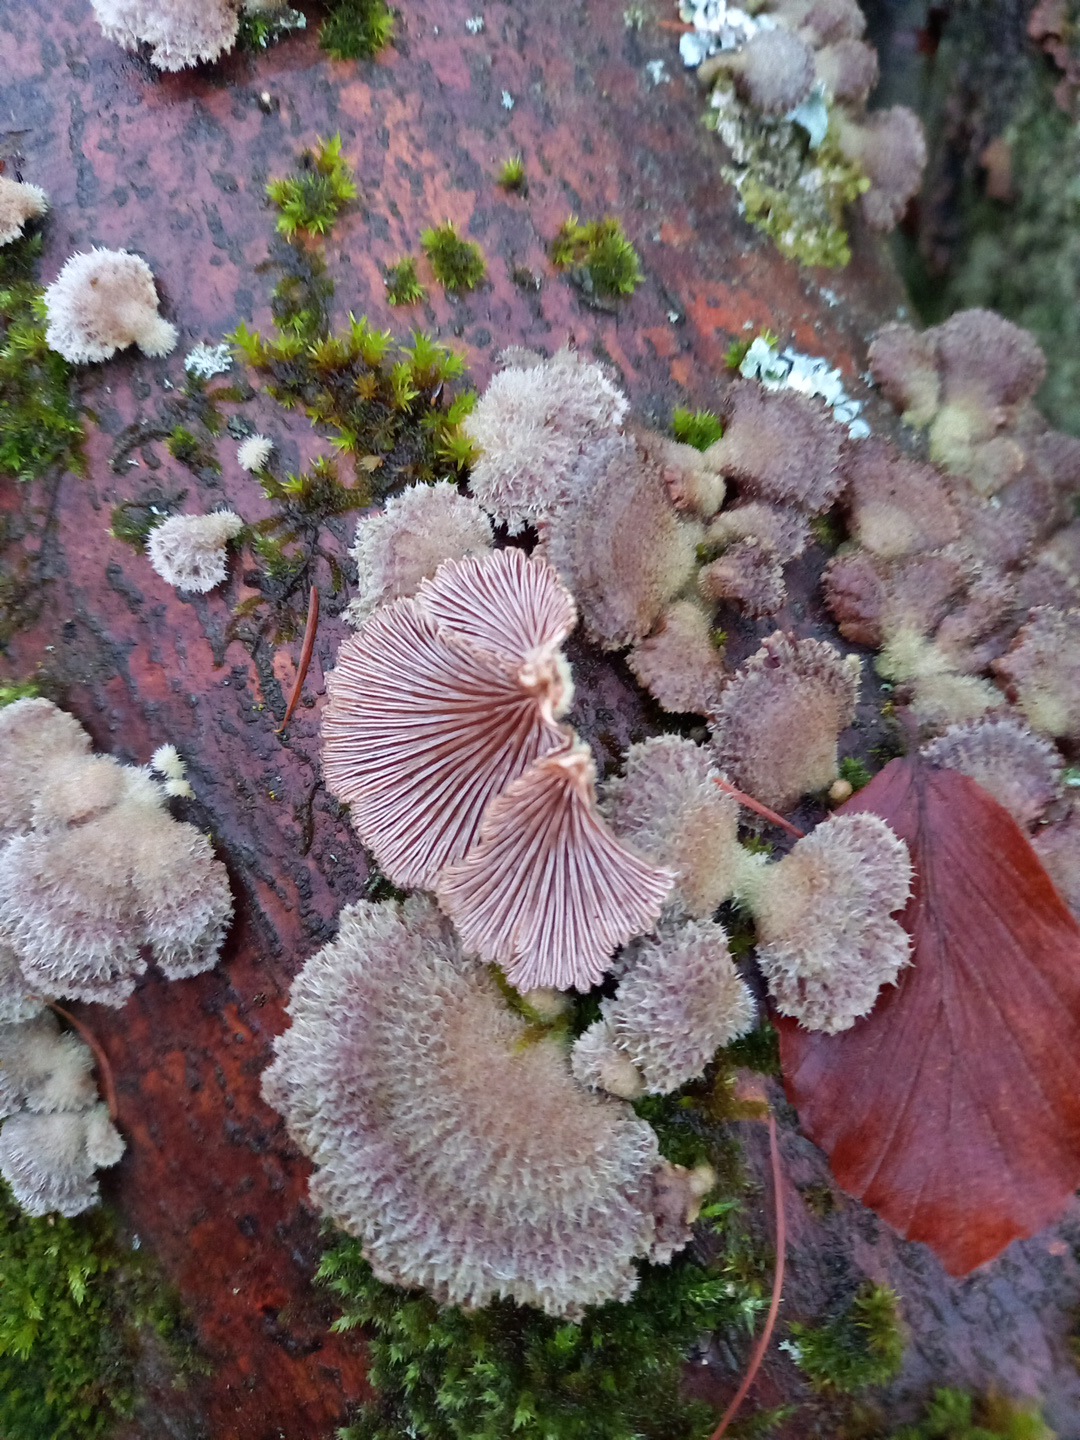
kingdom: Fungi
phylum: Basidiomycota
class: Agaricomycetes
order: Agaricales
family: Schizophyllaceae
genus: Schizophyllum
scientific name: Schizophyllum commune
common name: kløvblad
